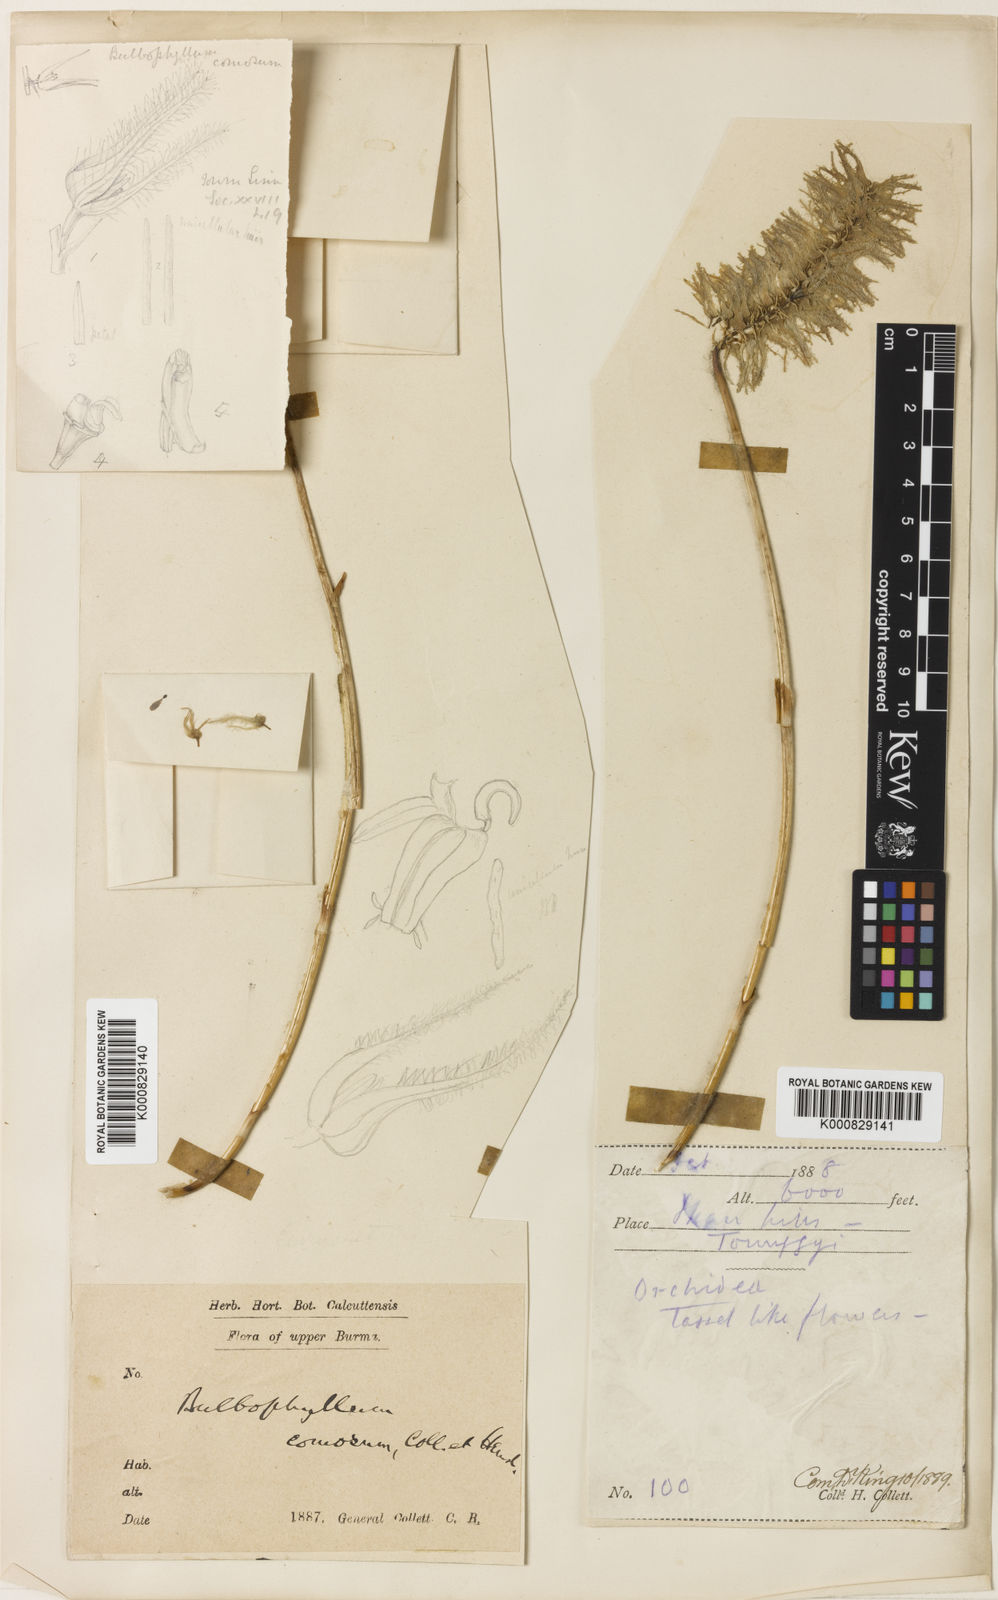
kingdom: Plantae
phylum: Tracheophyta
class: Liliopsida
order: Asparagales
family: Orchidaceae
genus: Bulbophyllum
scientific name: Bulbophyllum comosum
